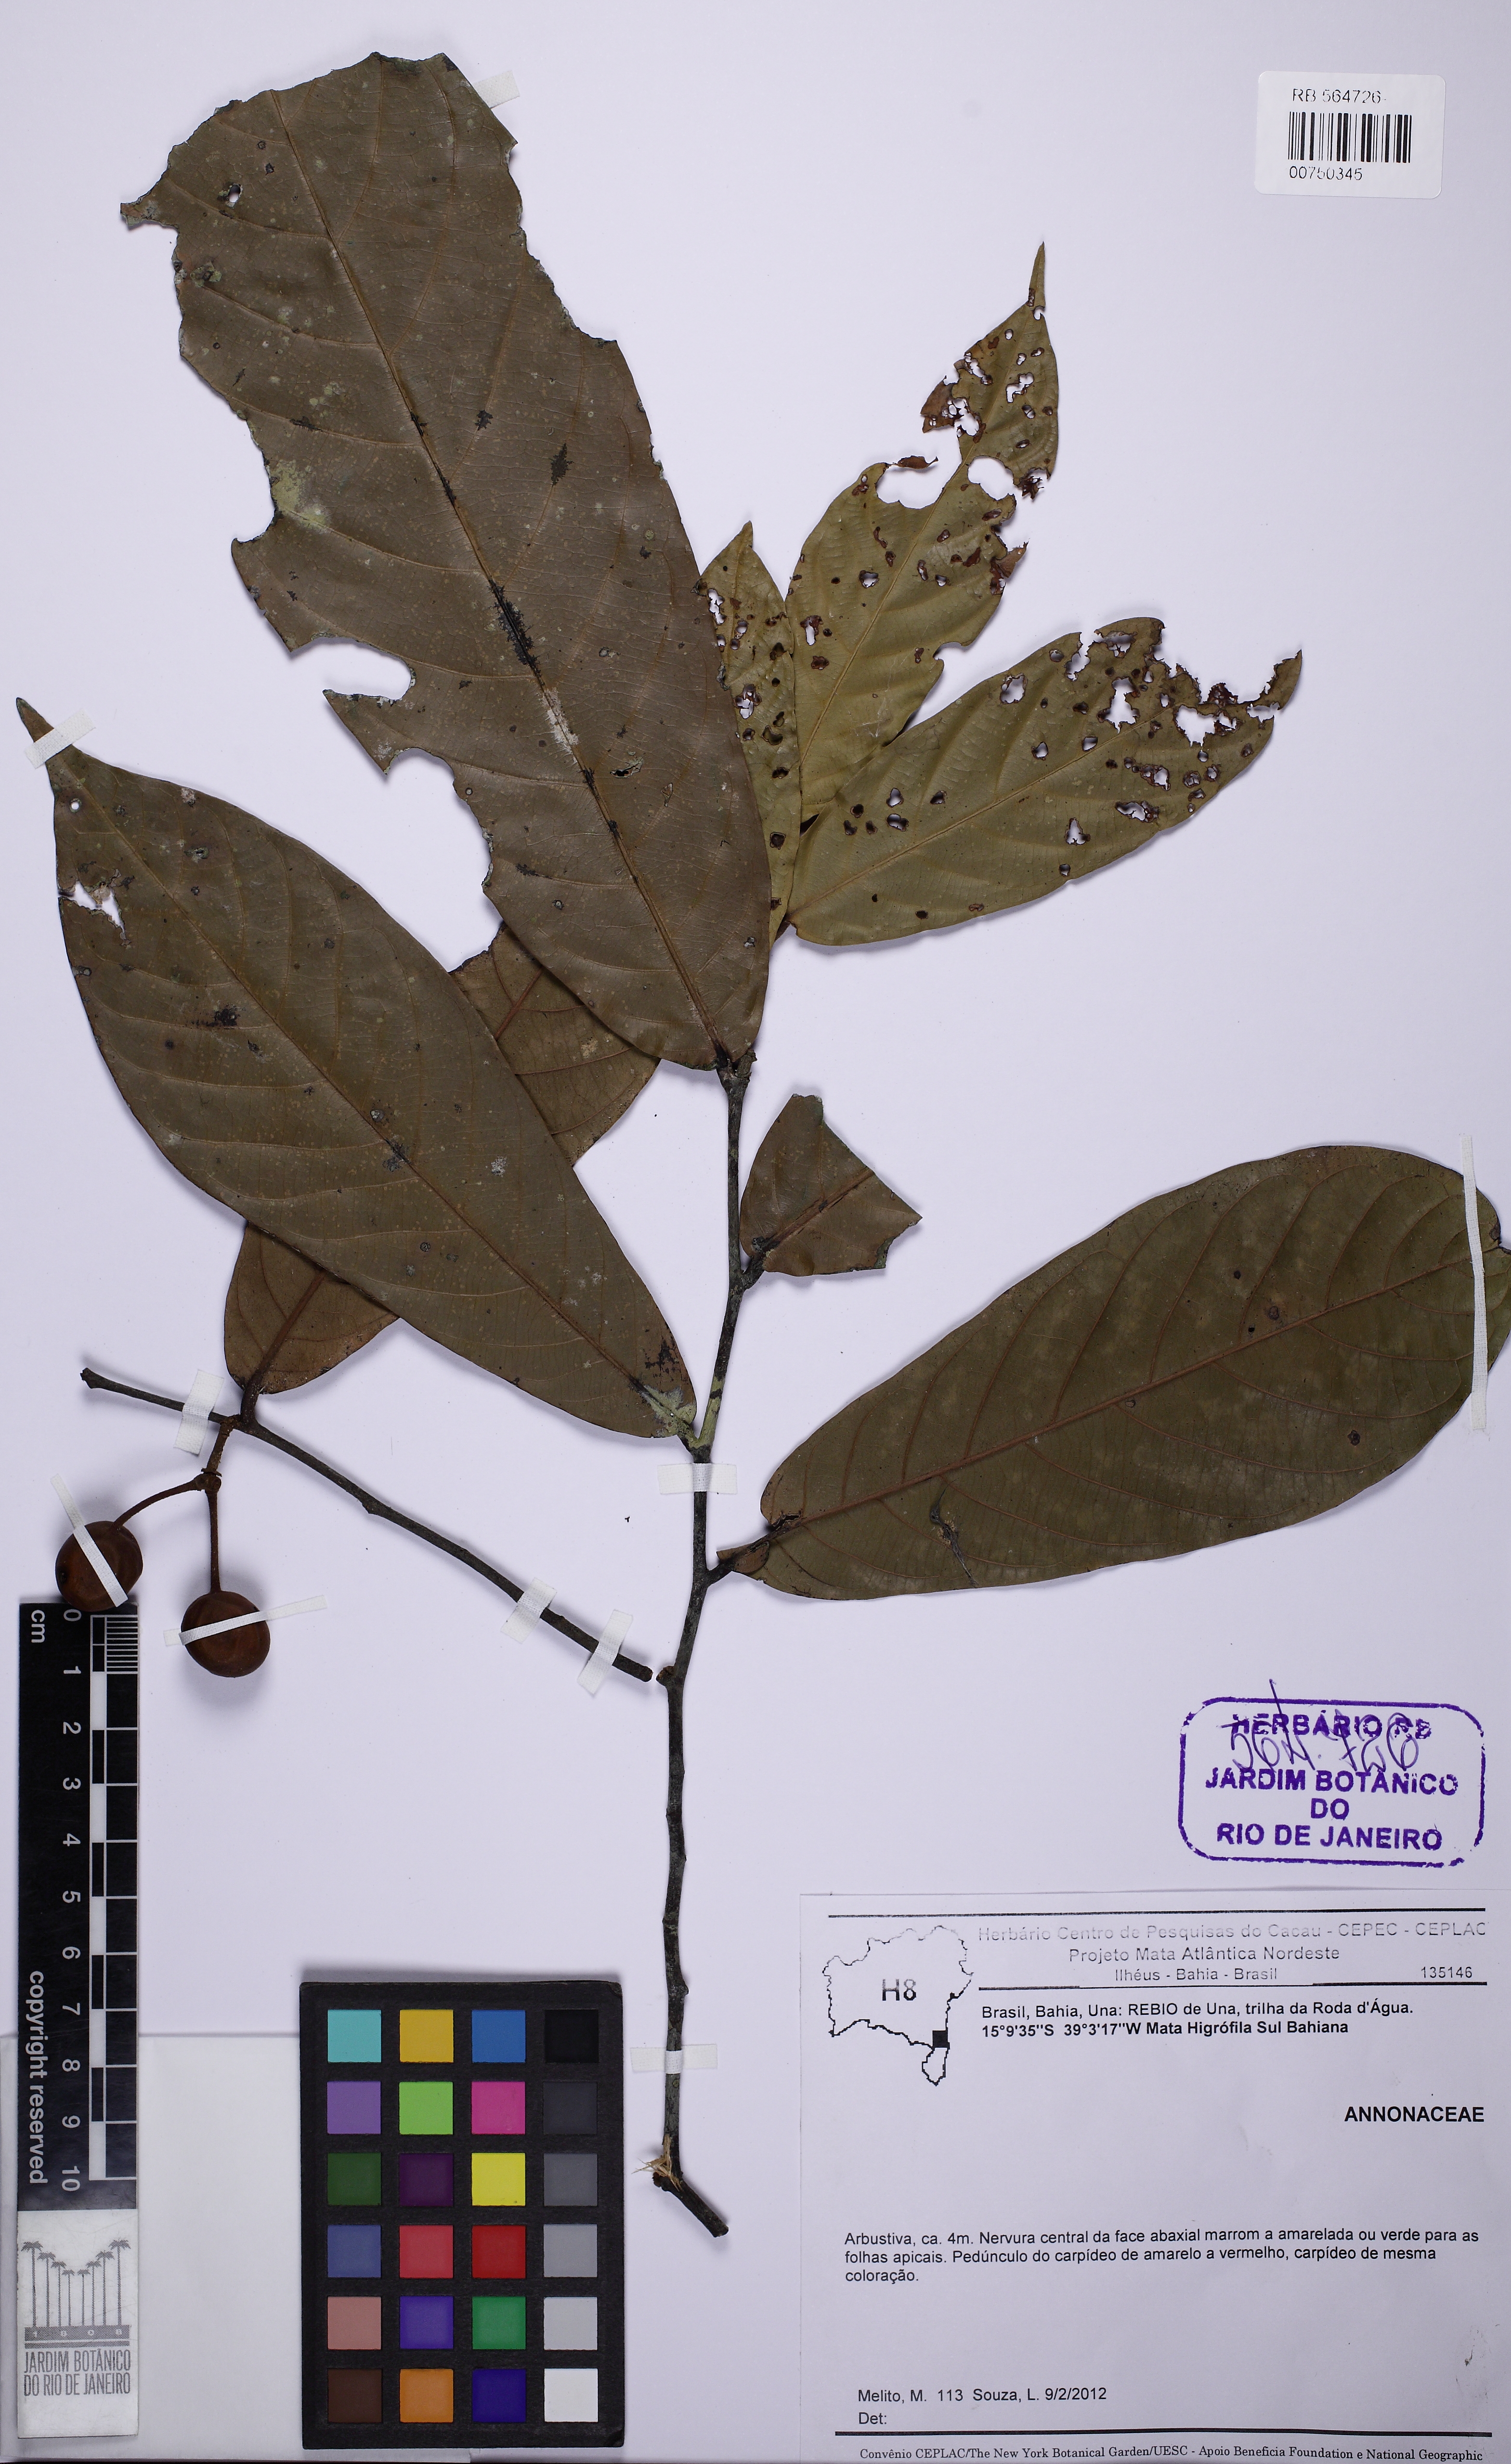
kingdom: Plantae
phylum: Tracheophyta
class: Magnoliopsida
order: Magnoliales
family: Annonaceae
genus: Unonopsis
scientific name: Unonopsis bahiensis
